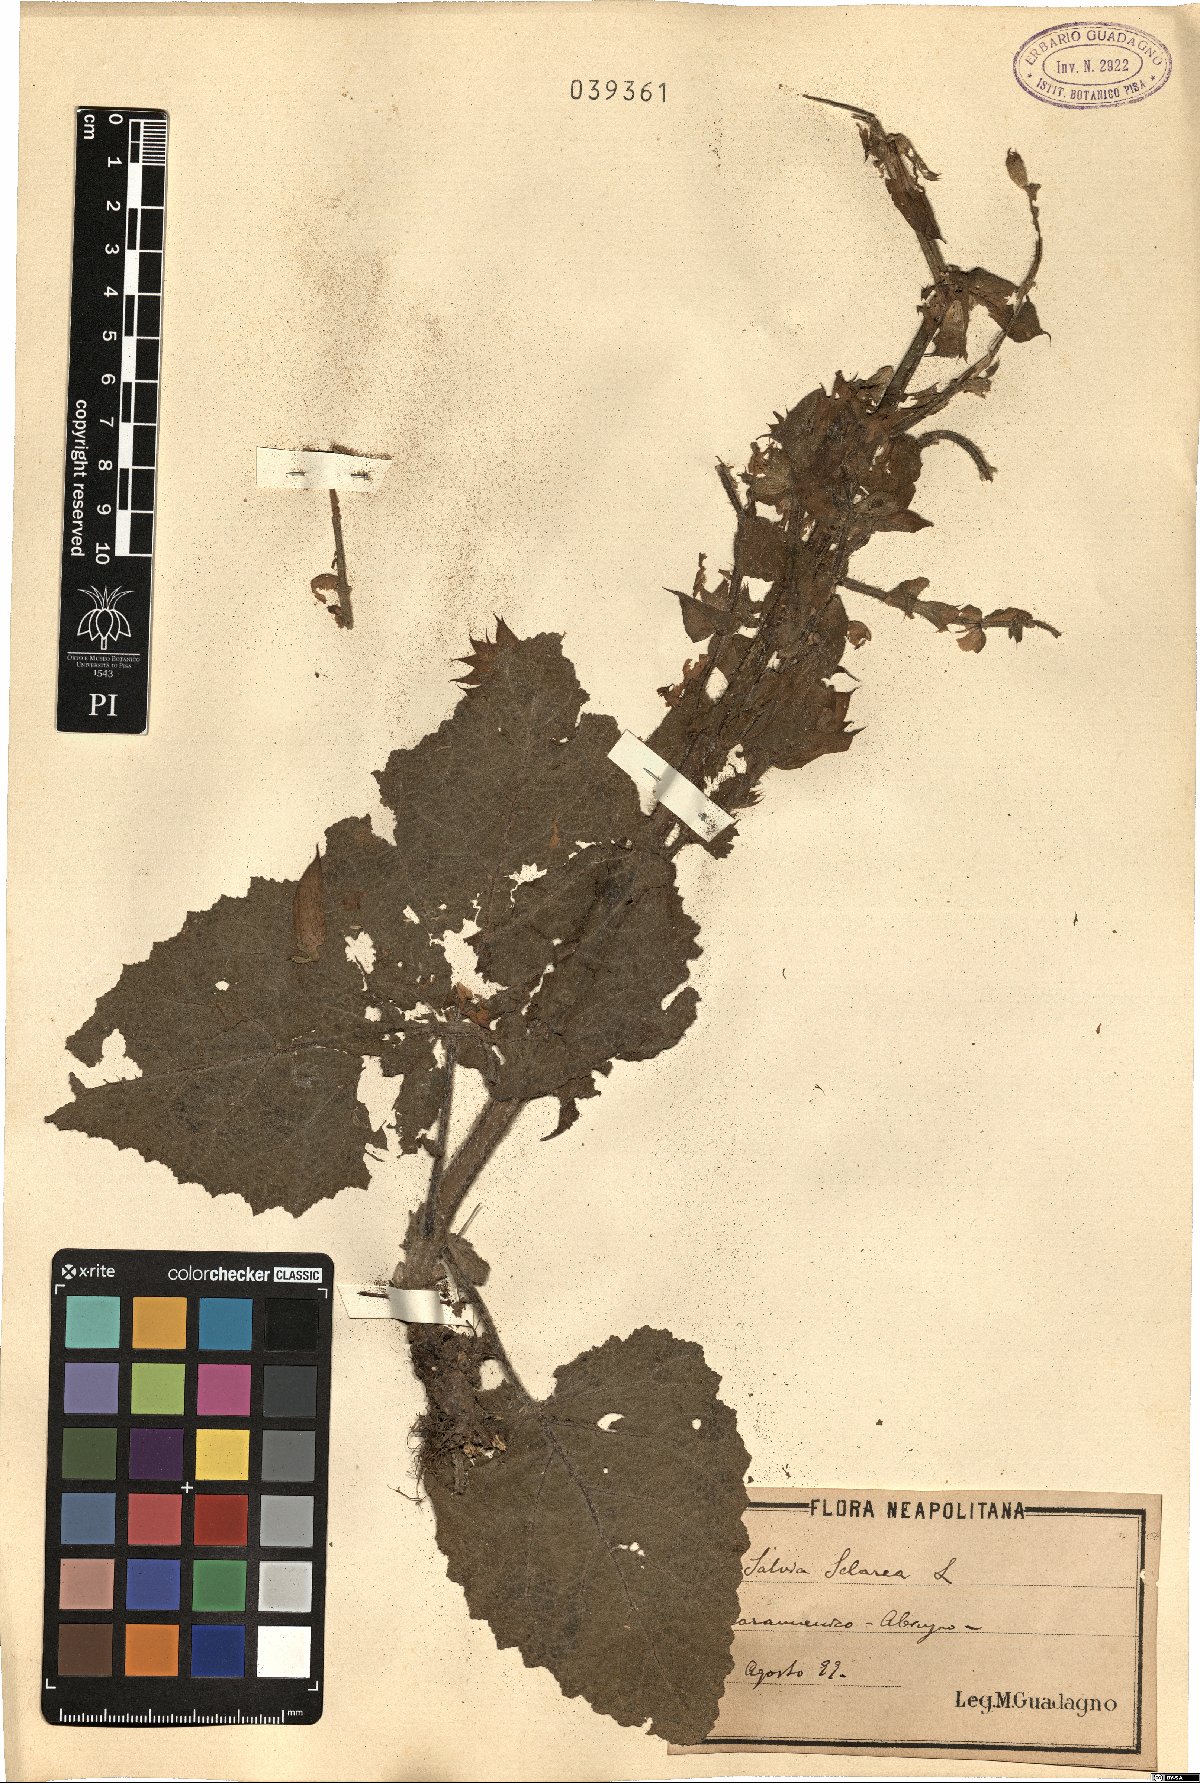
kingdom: Plantae
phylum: Tracheophyta
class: Magnoliopsida
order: Lamiales
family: Lamiaceae
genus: Salvia
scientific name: Salvia sclarea
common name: Clary
